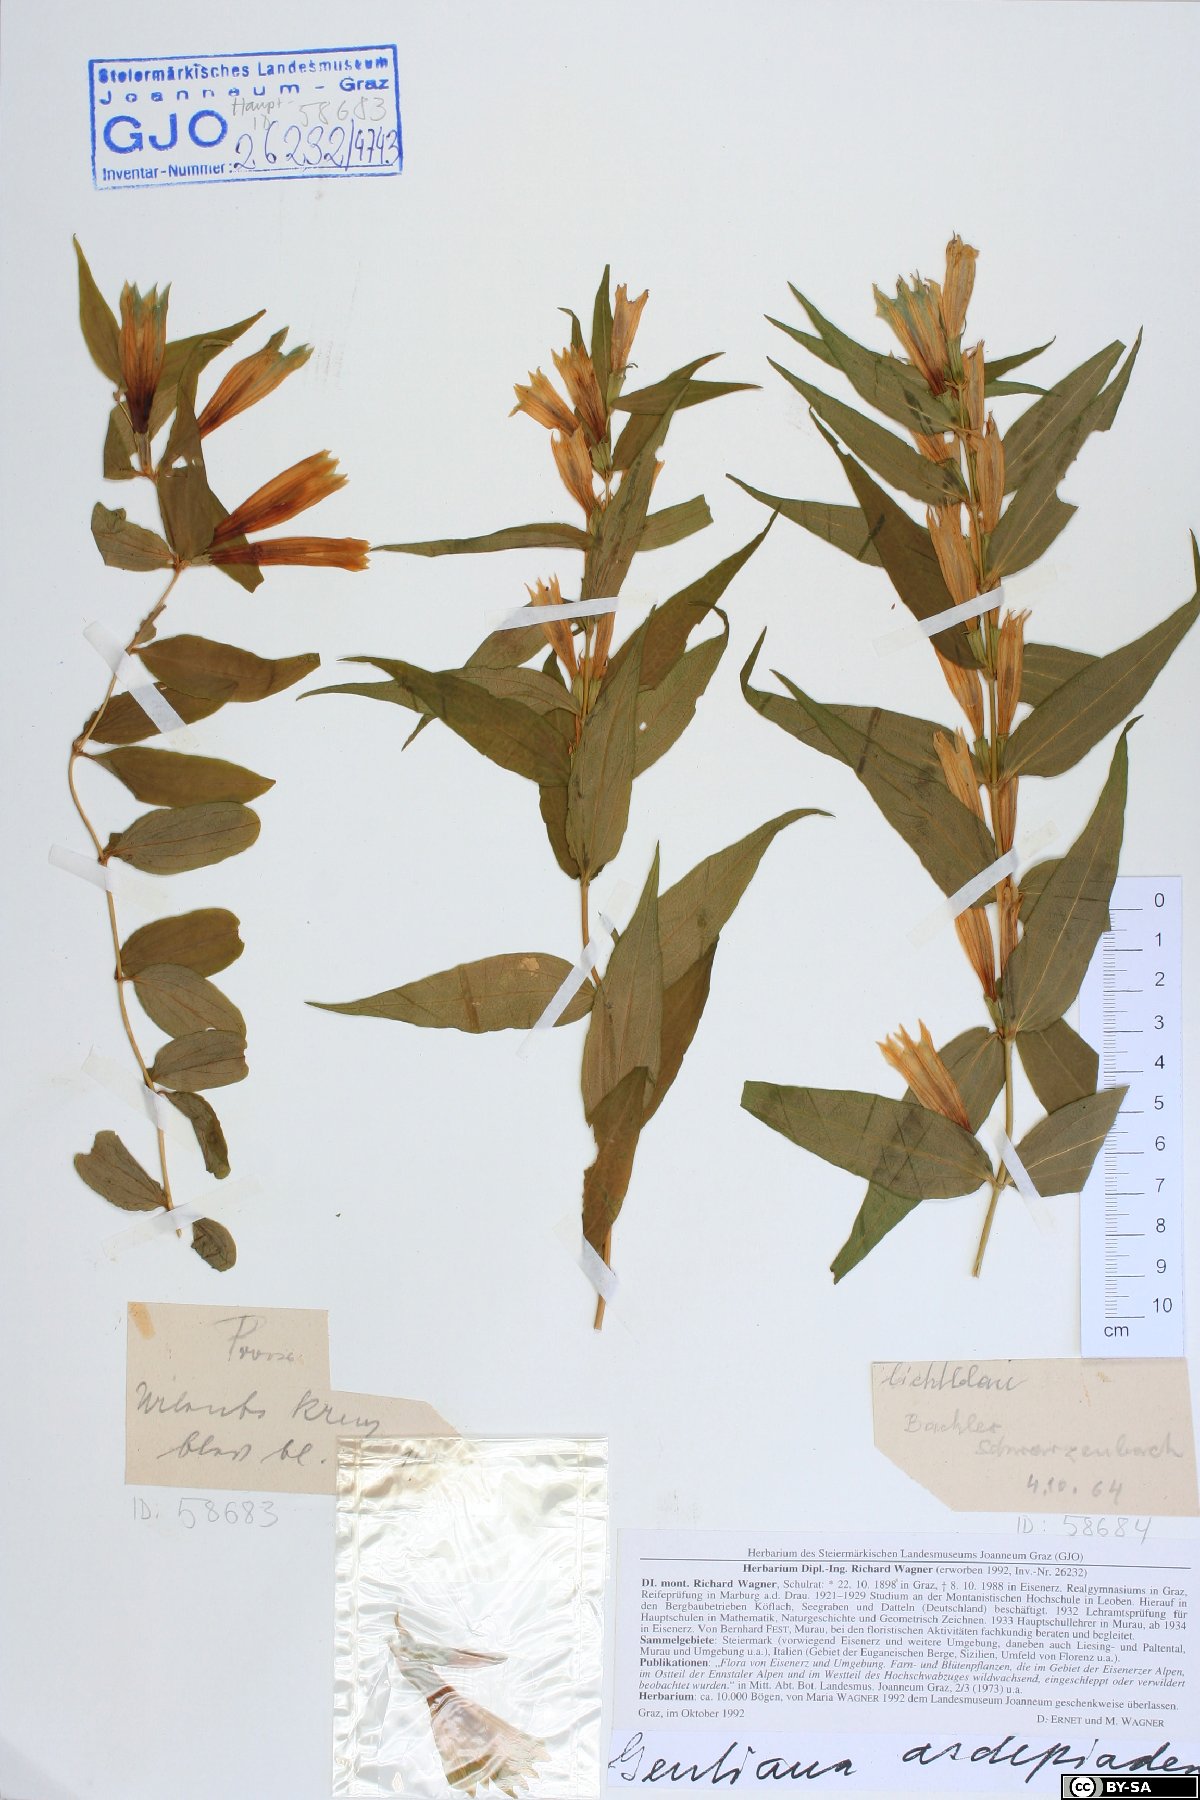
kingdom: Plantae
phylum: Tracheophyta
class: Magnoliopsida
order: Gentianales
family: Gentianaceae
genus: Gentiana
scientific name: Gentiana asclepiadea
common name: Willow gentian
